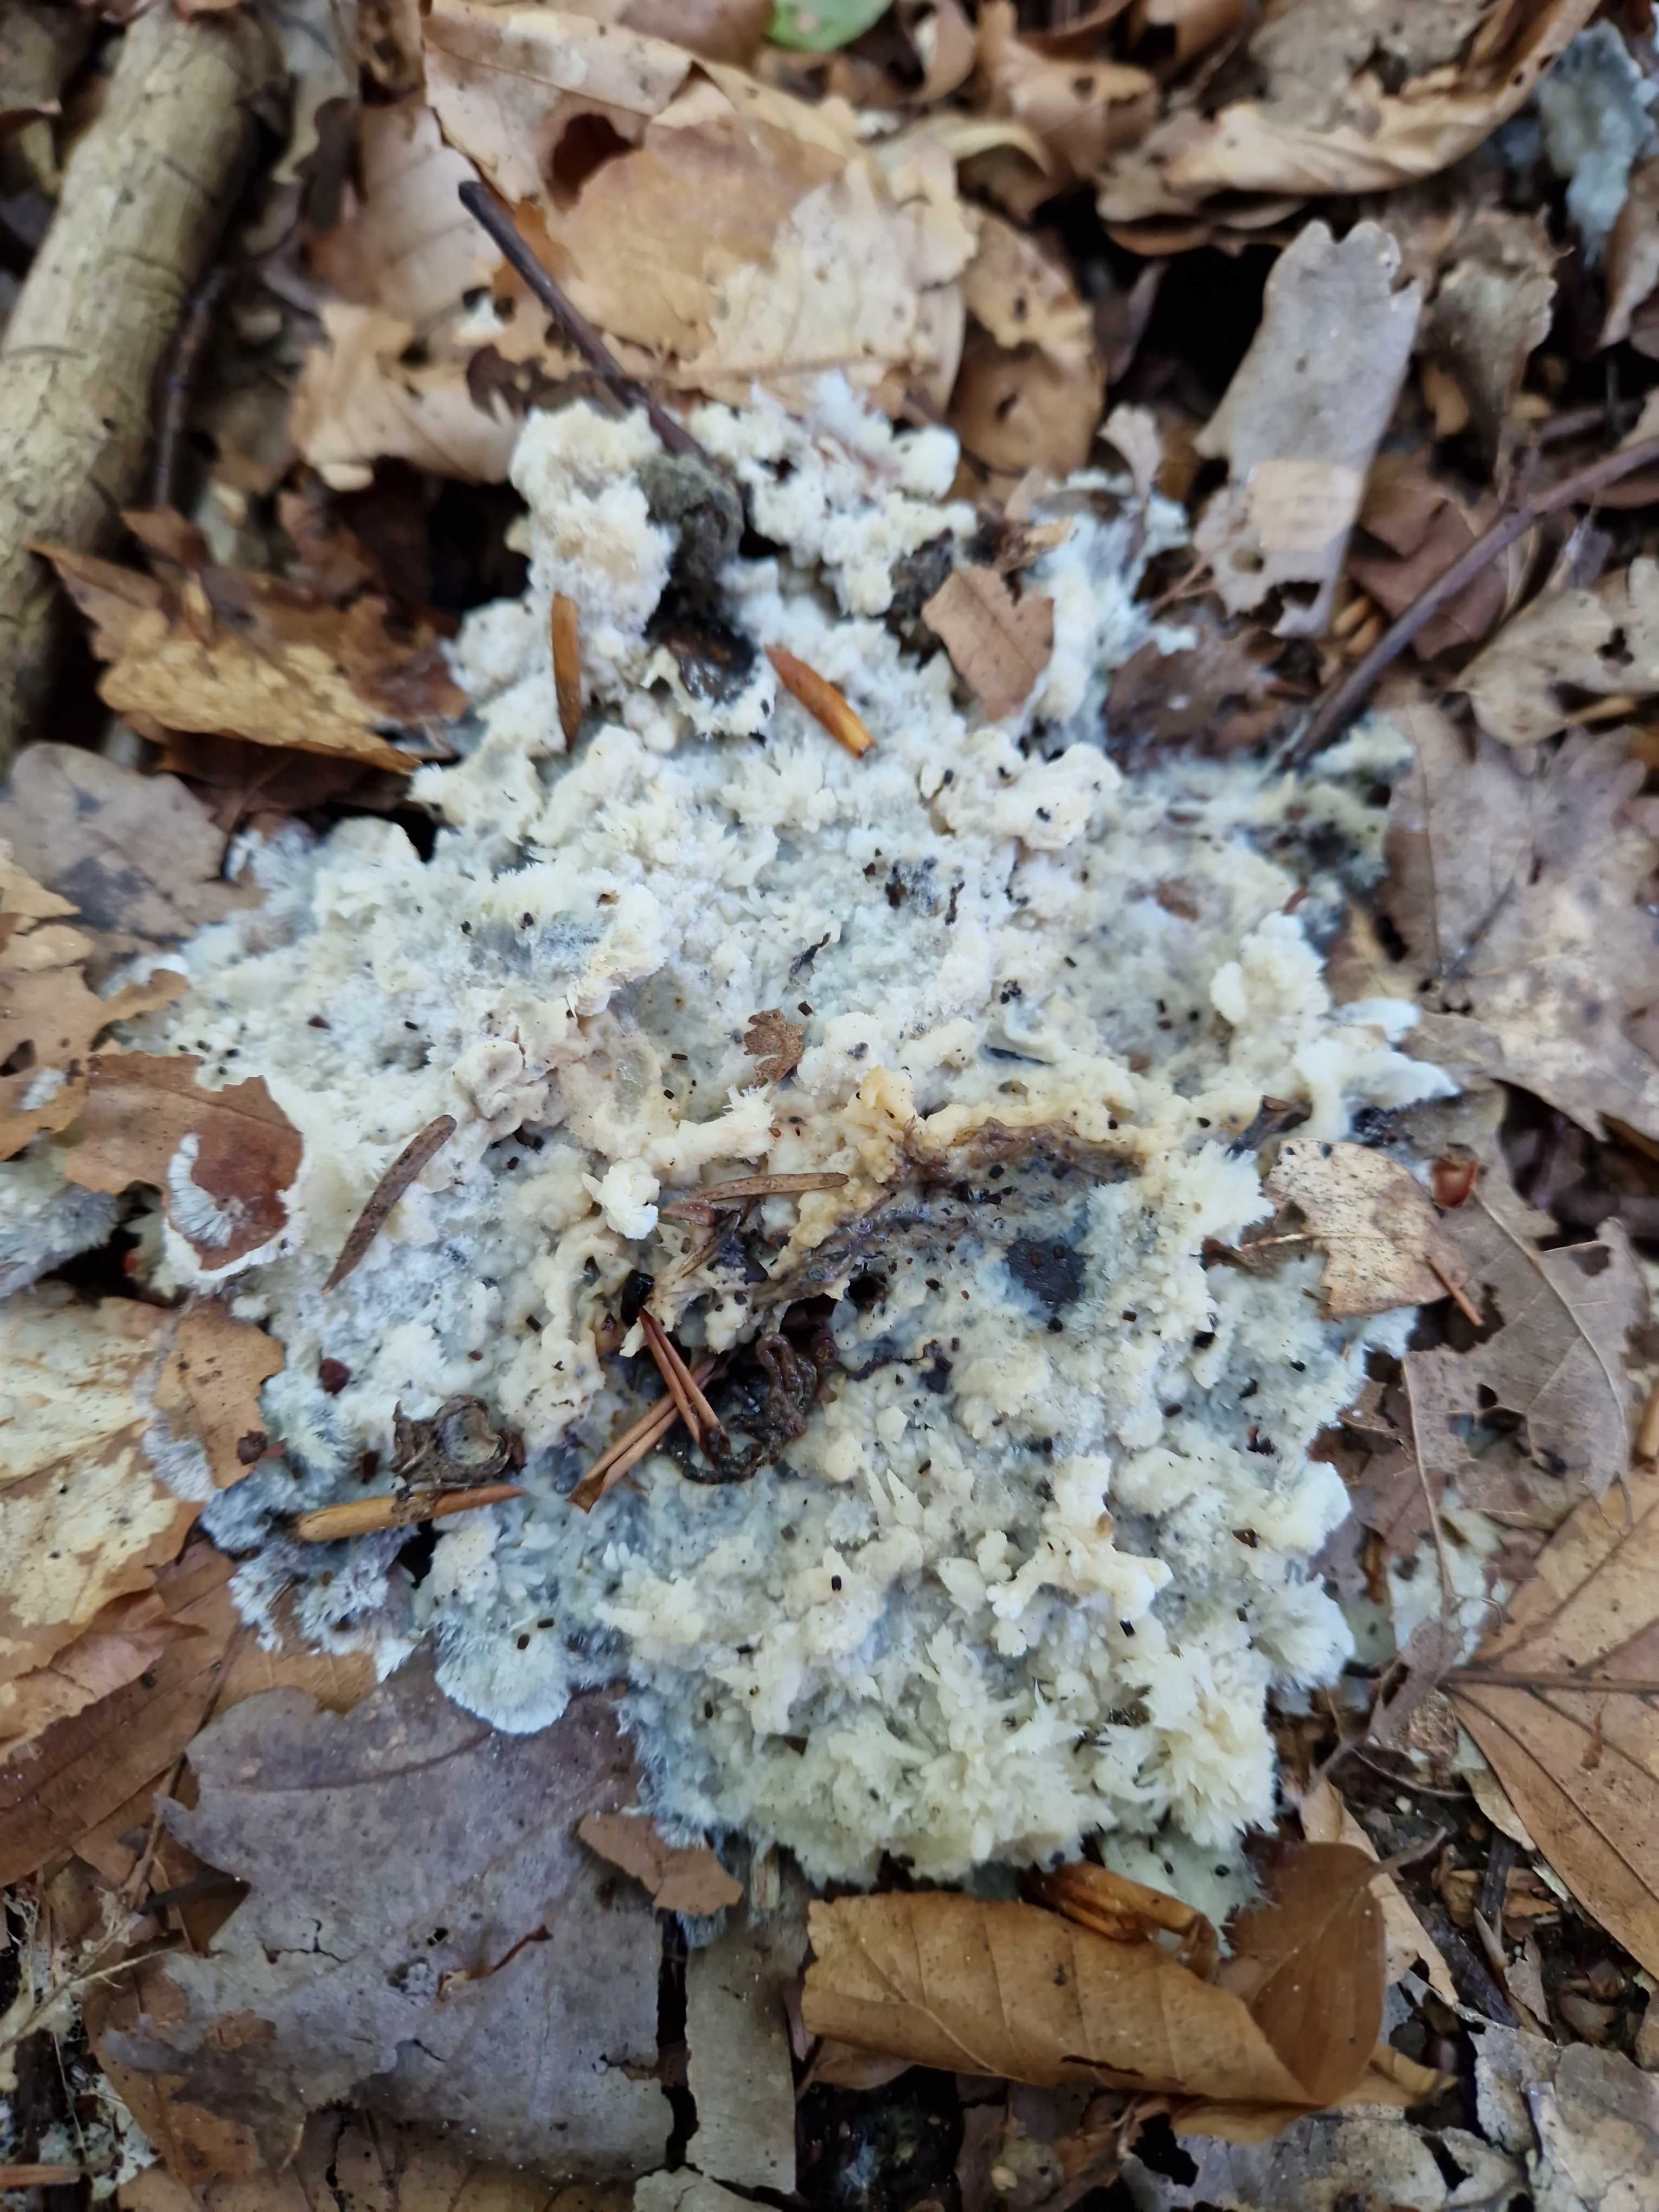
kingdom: Fungi
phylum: Basidiomycota
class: Agaricomycetes
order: Sebacinales
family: Sebacinaceae
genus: Sebacina
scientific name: Sebacina incrustans
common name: krybende bævretalg
